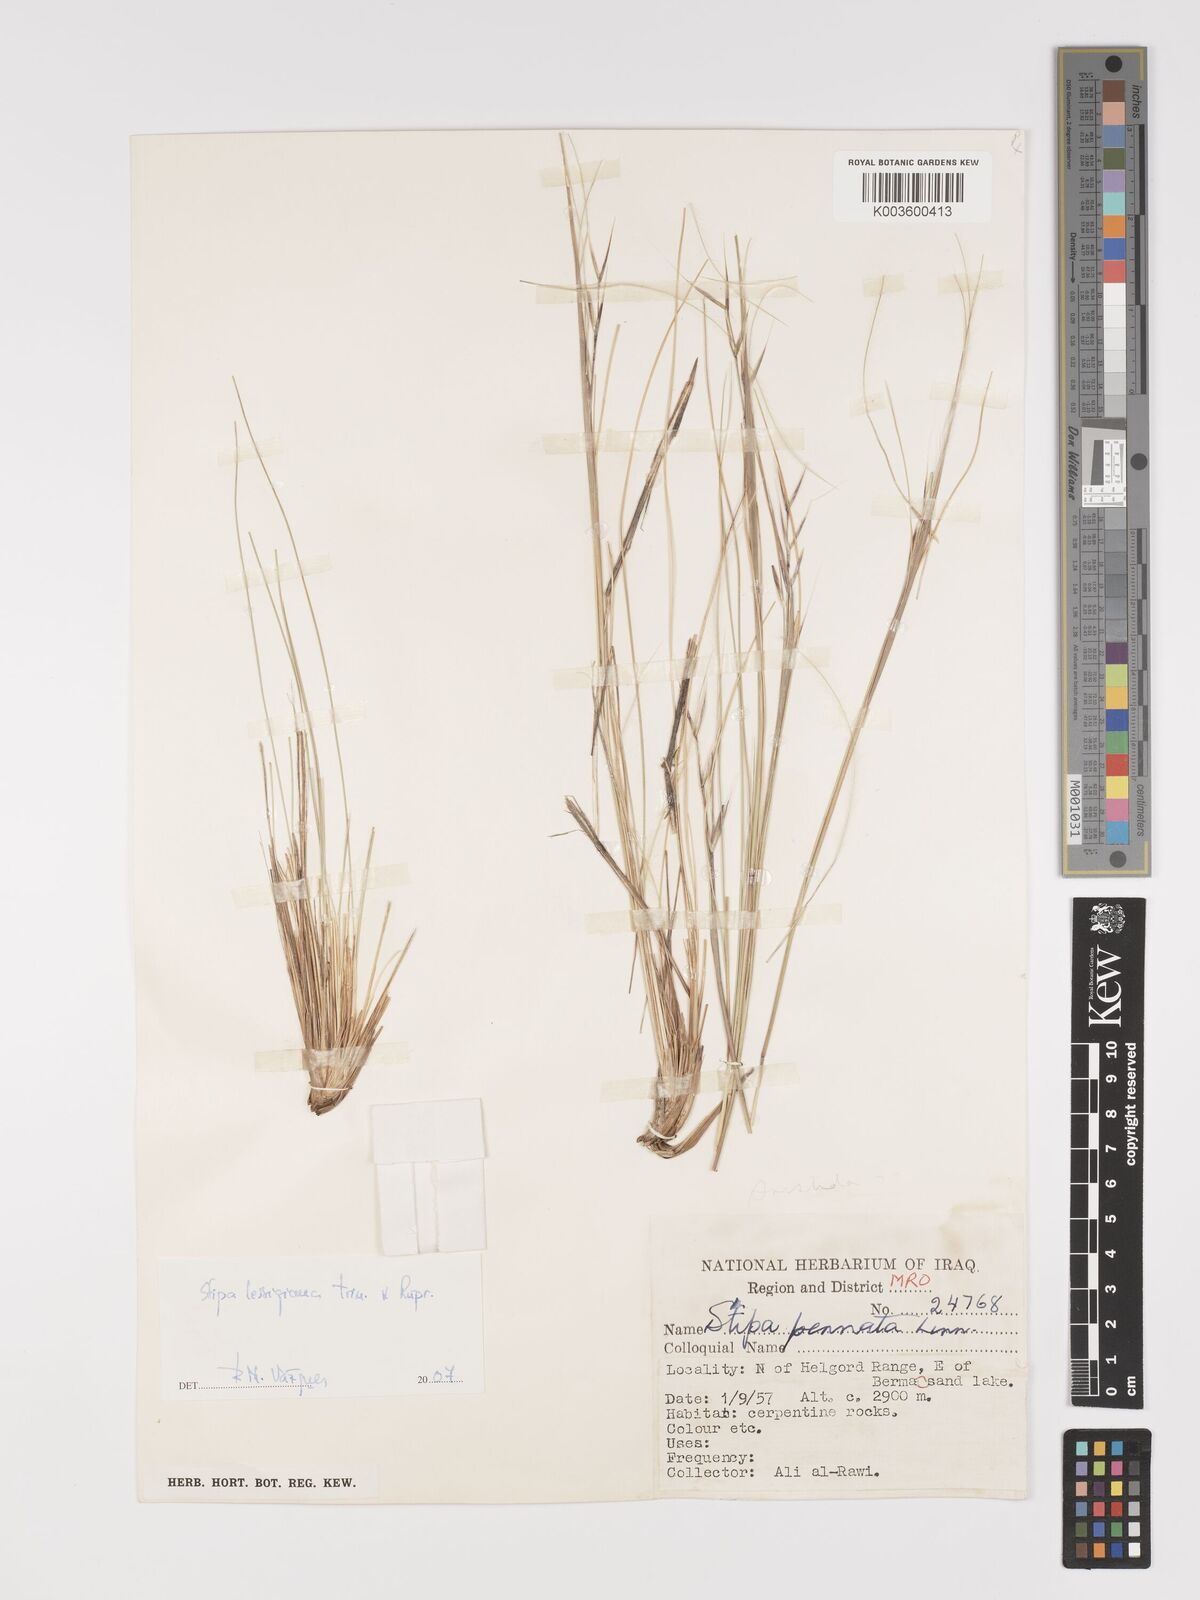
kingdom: Plantae
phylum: Tracheophyta
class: Liliopsida
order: Poales
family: Poaceae
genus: Stipa
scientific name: Stipa lessingiana
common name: Needle grass
